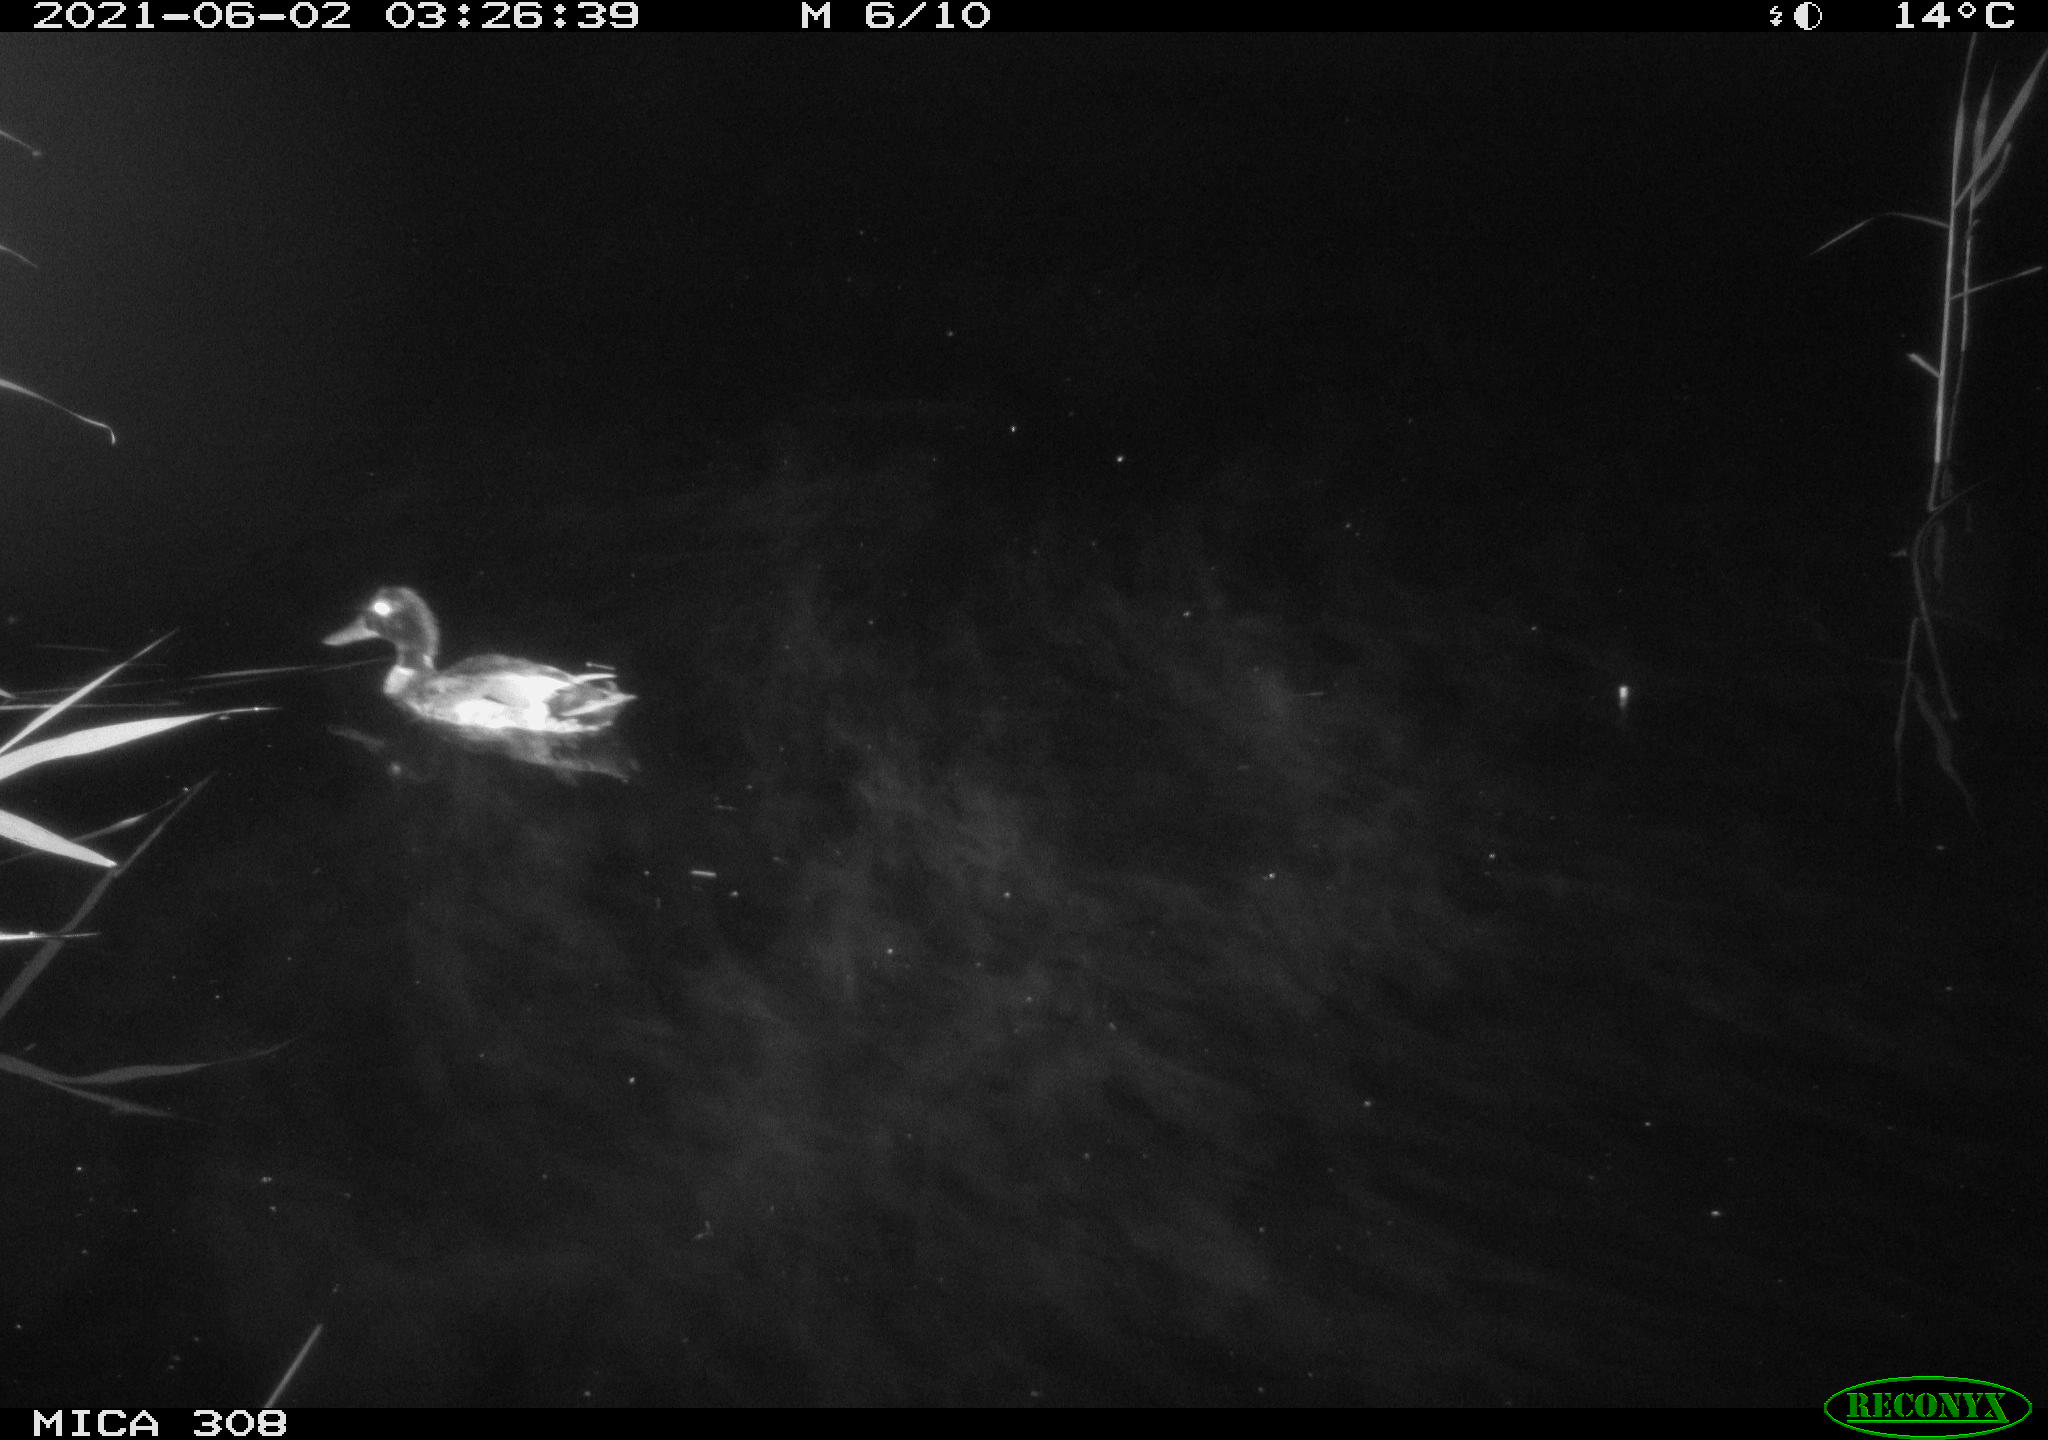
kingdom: Animalia
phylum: Chordata
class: Aves
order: Anseriformes
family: Anatidae
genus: Anas
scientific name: Anas platyrhynchos
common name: Mallard
